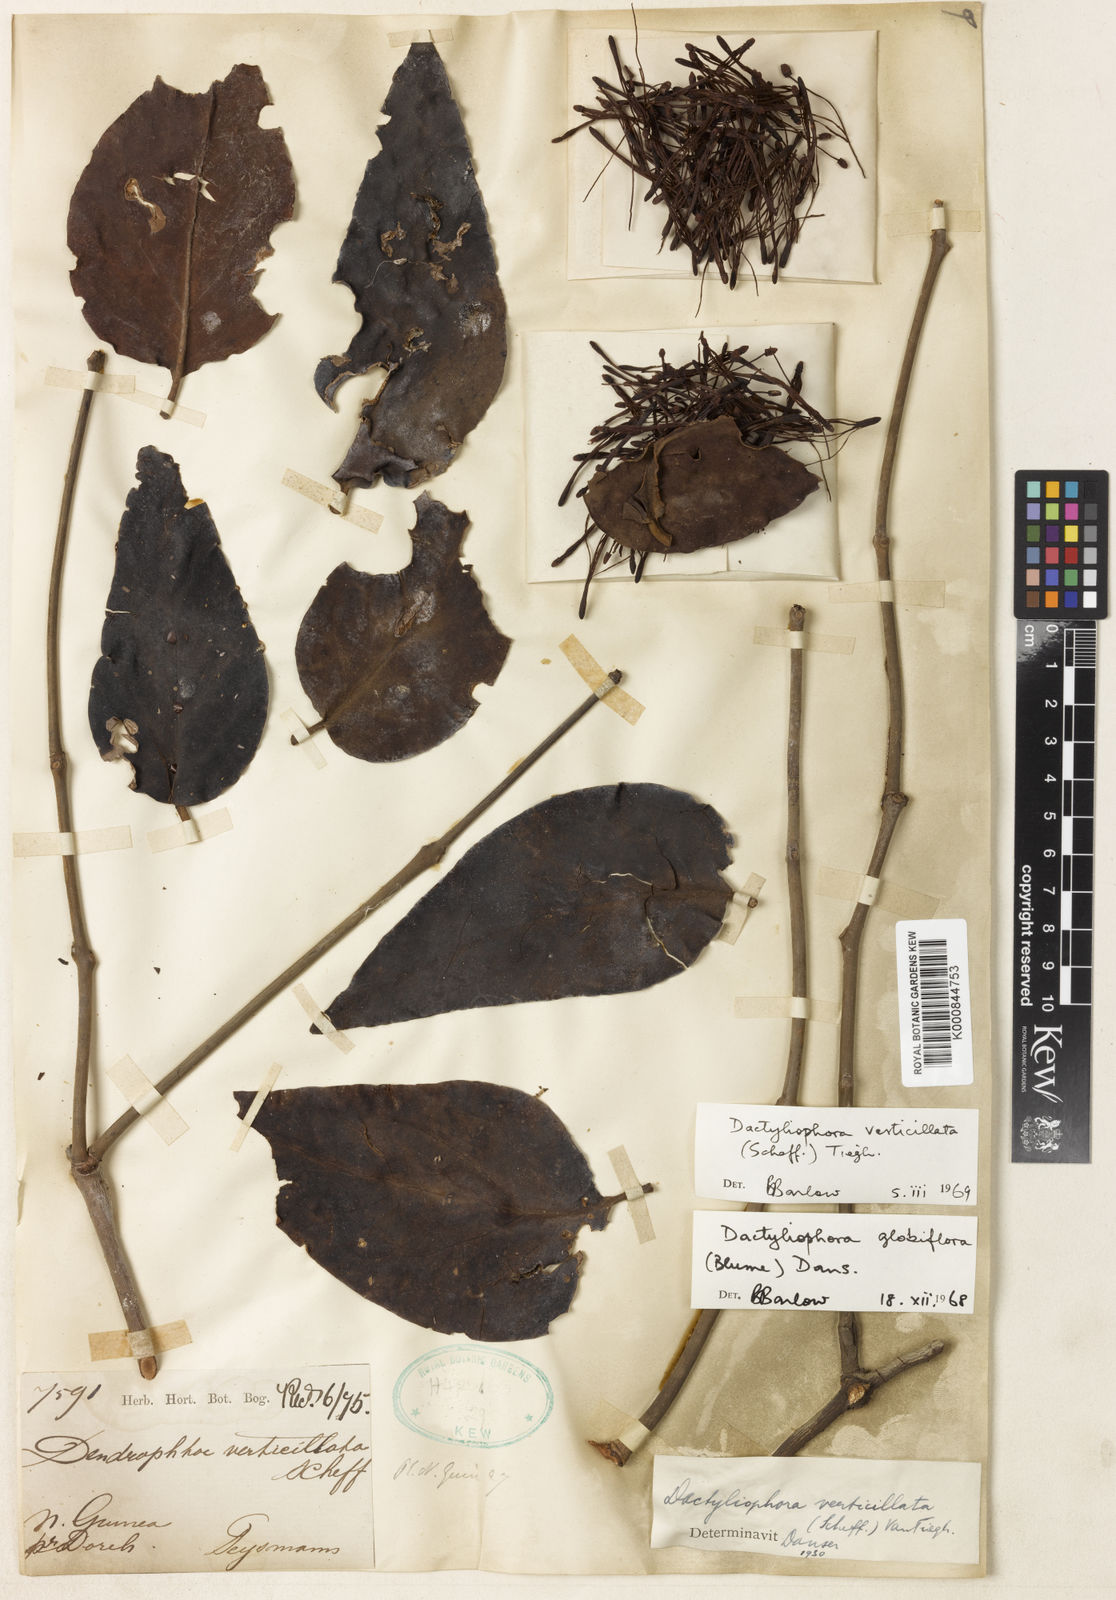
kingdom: Plantae
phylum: Tracheophyta
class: Magnoliopsida
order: Santalales
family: Loranthaceae
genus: Dactyliophora
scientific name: Dactyliophora verticillata
